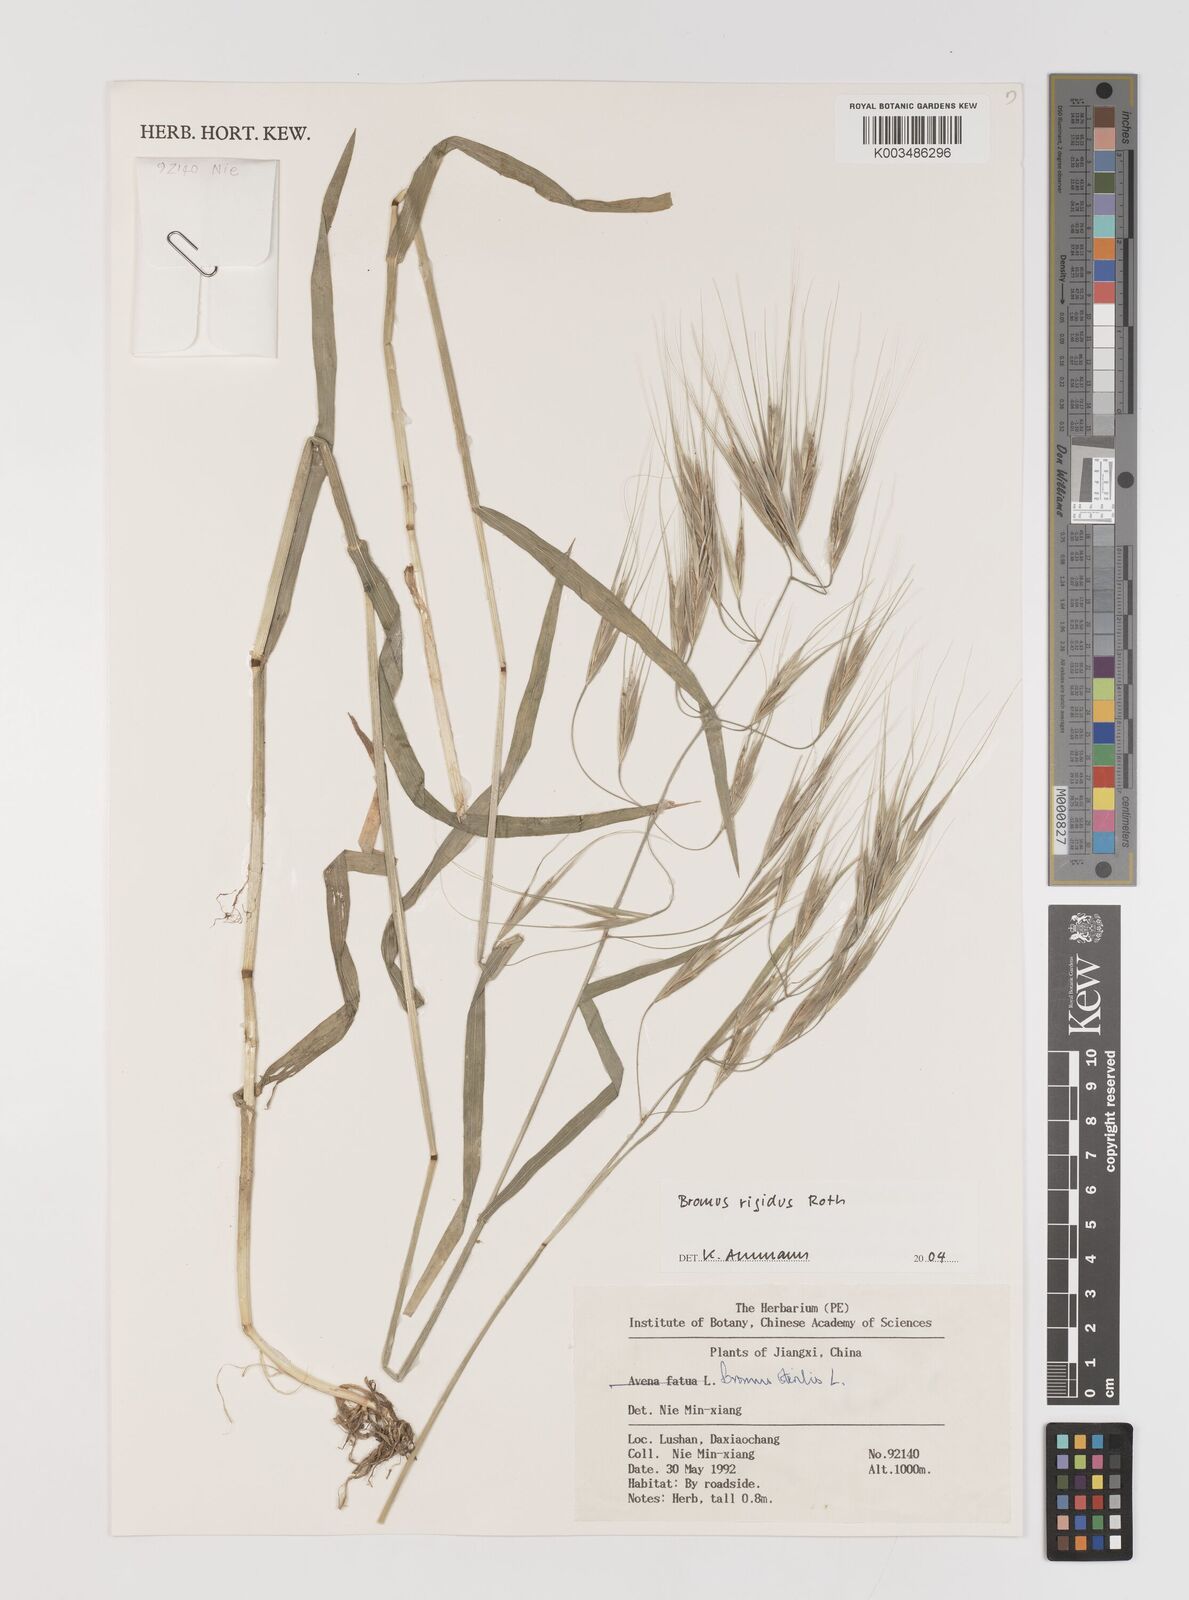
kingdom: Plantae
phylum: Tracheophyta
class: Liliopsida
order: Poales
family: Poaceae
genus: Bromus
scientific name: Bromus diandrus
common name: Ripgut brome
